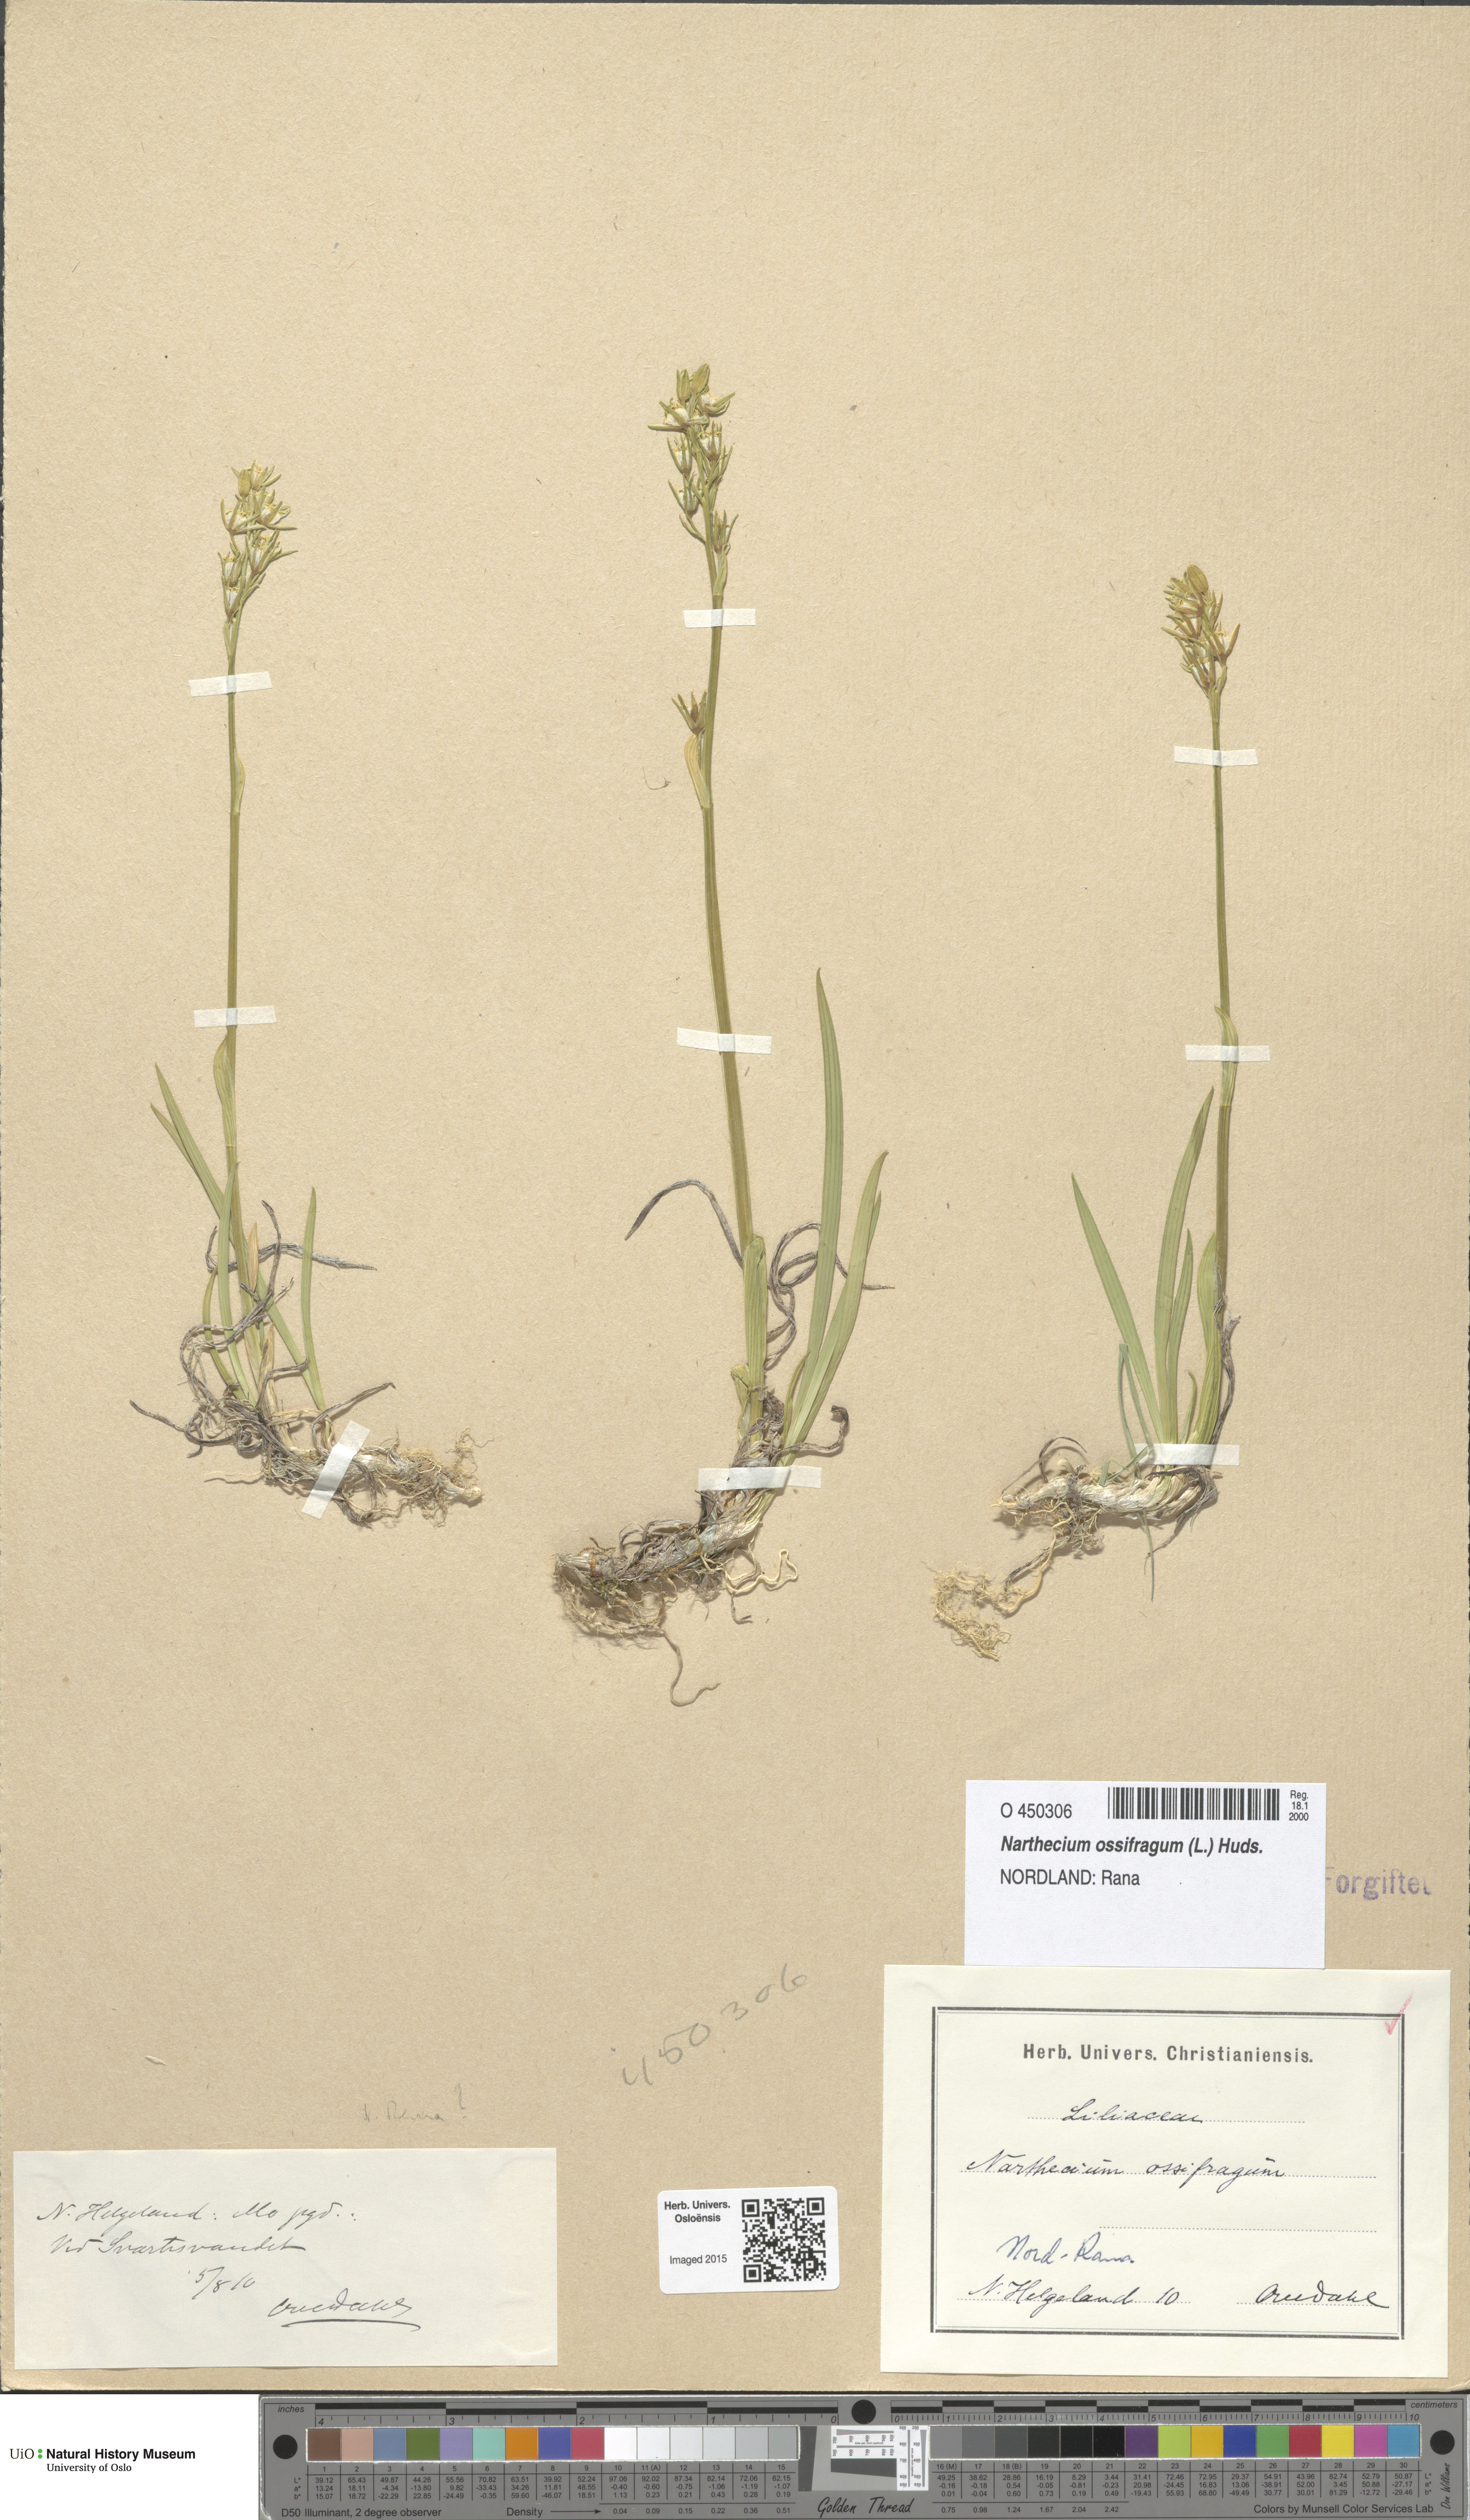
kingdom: Plantae
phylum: Tracheophyta
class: Liliopsida
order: Dioscoreales
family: Nartheciaceae
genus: Narthecium
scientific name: Narthecium ossifragum
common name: Bog asphodel
